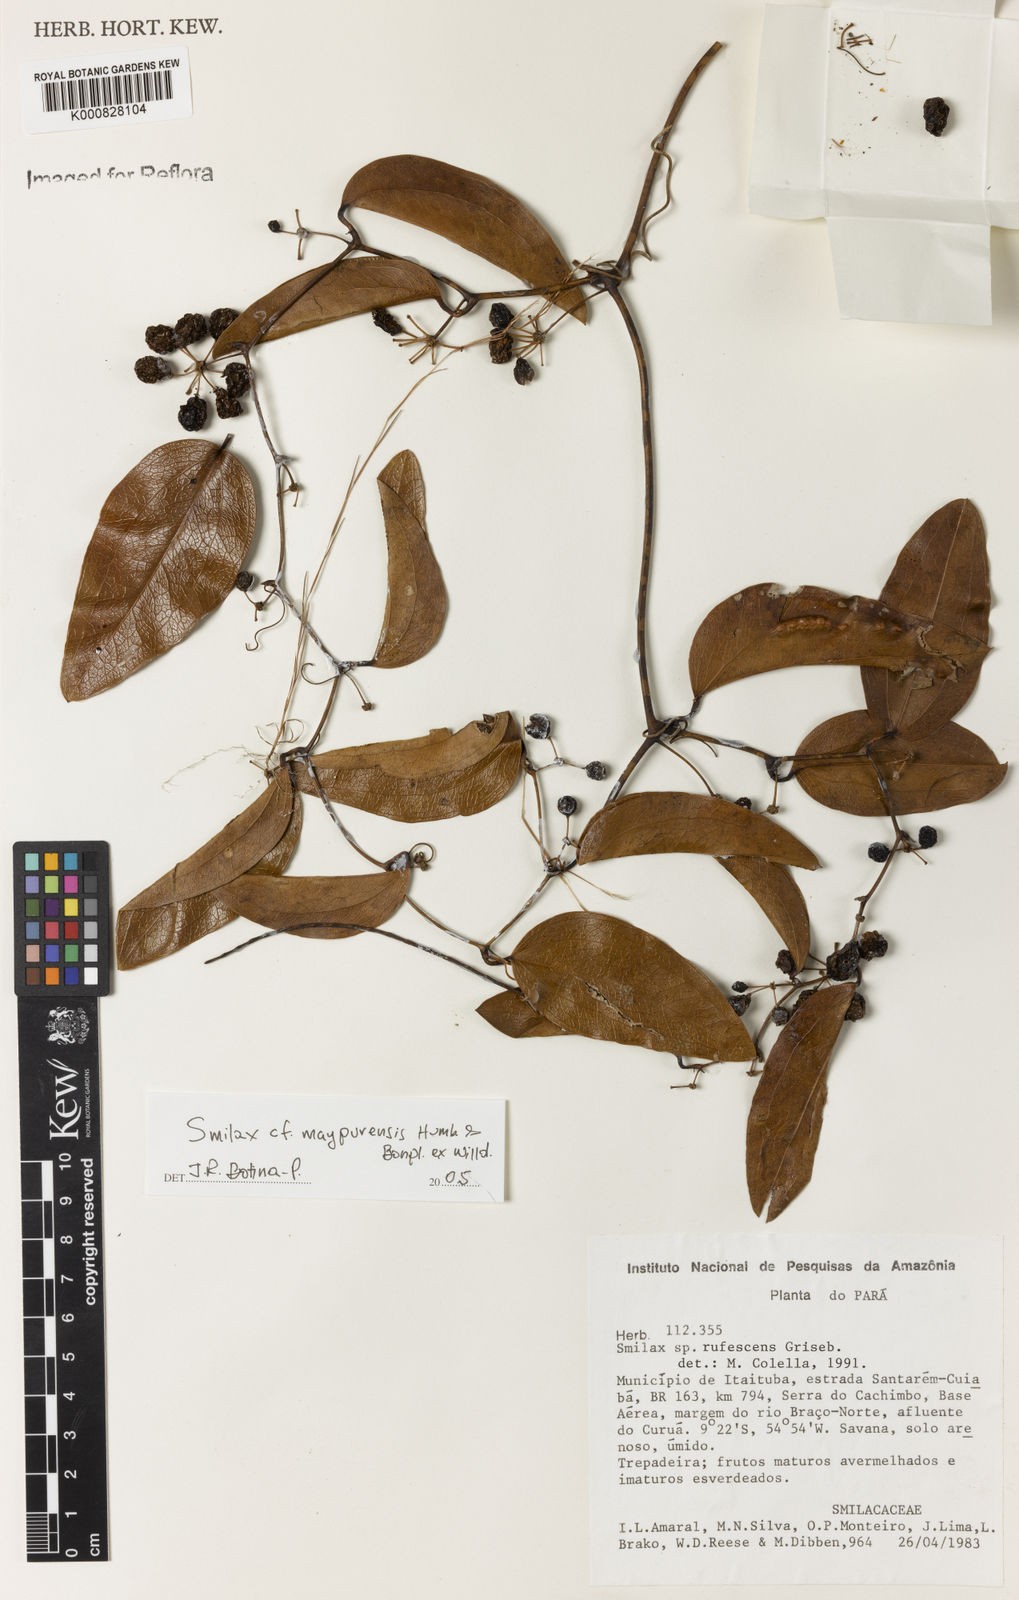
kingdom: Plantae
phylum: Tracheophyta
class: Liliopsida
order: Liliales
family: Smilacaceae
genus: Smilax
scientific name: Smilax rufescens
